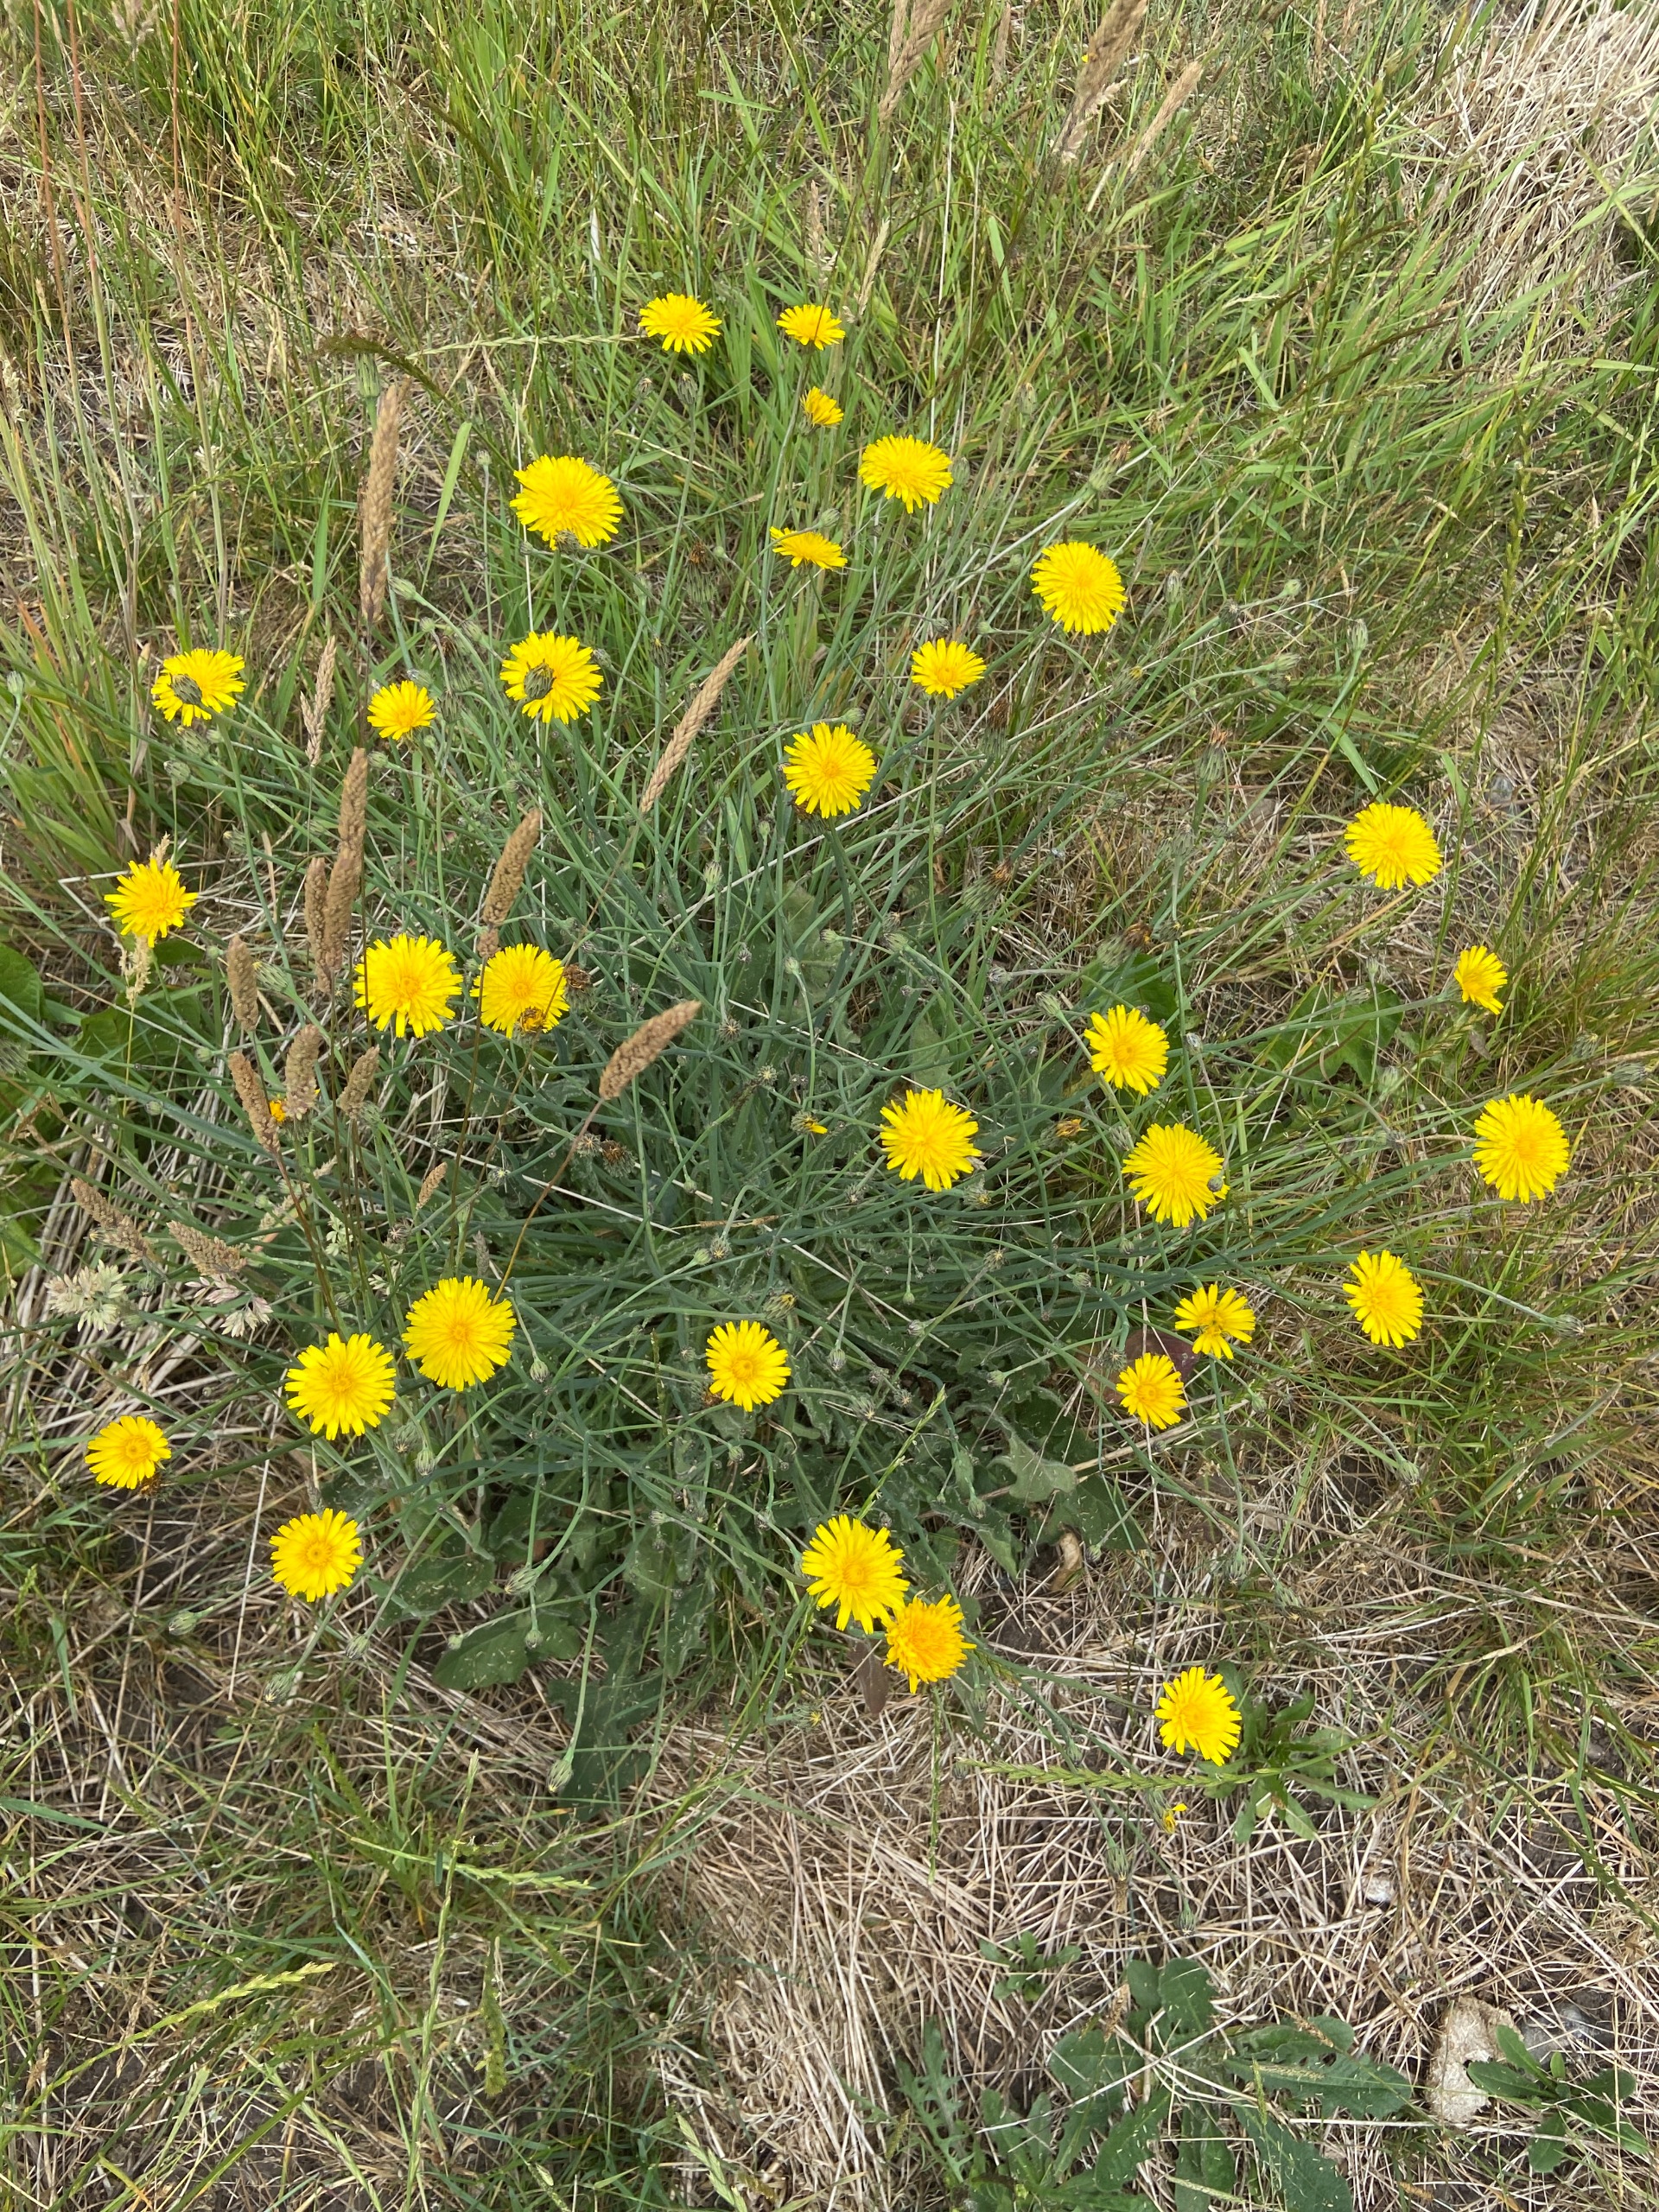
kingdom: Plantae
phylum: Tracheophyta
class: Magnoliopsida
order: Asterales
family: Asteraceae
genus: Hypochaeris
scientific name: Hypochaeris radicata
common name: Almindelig kongepen
